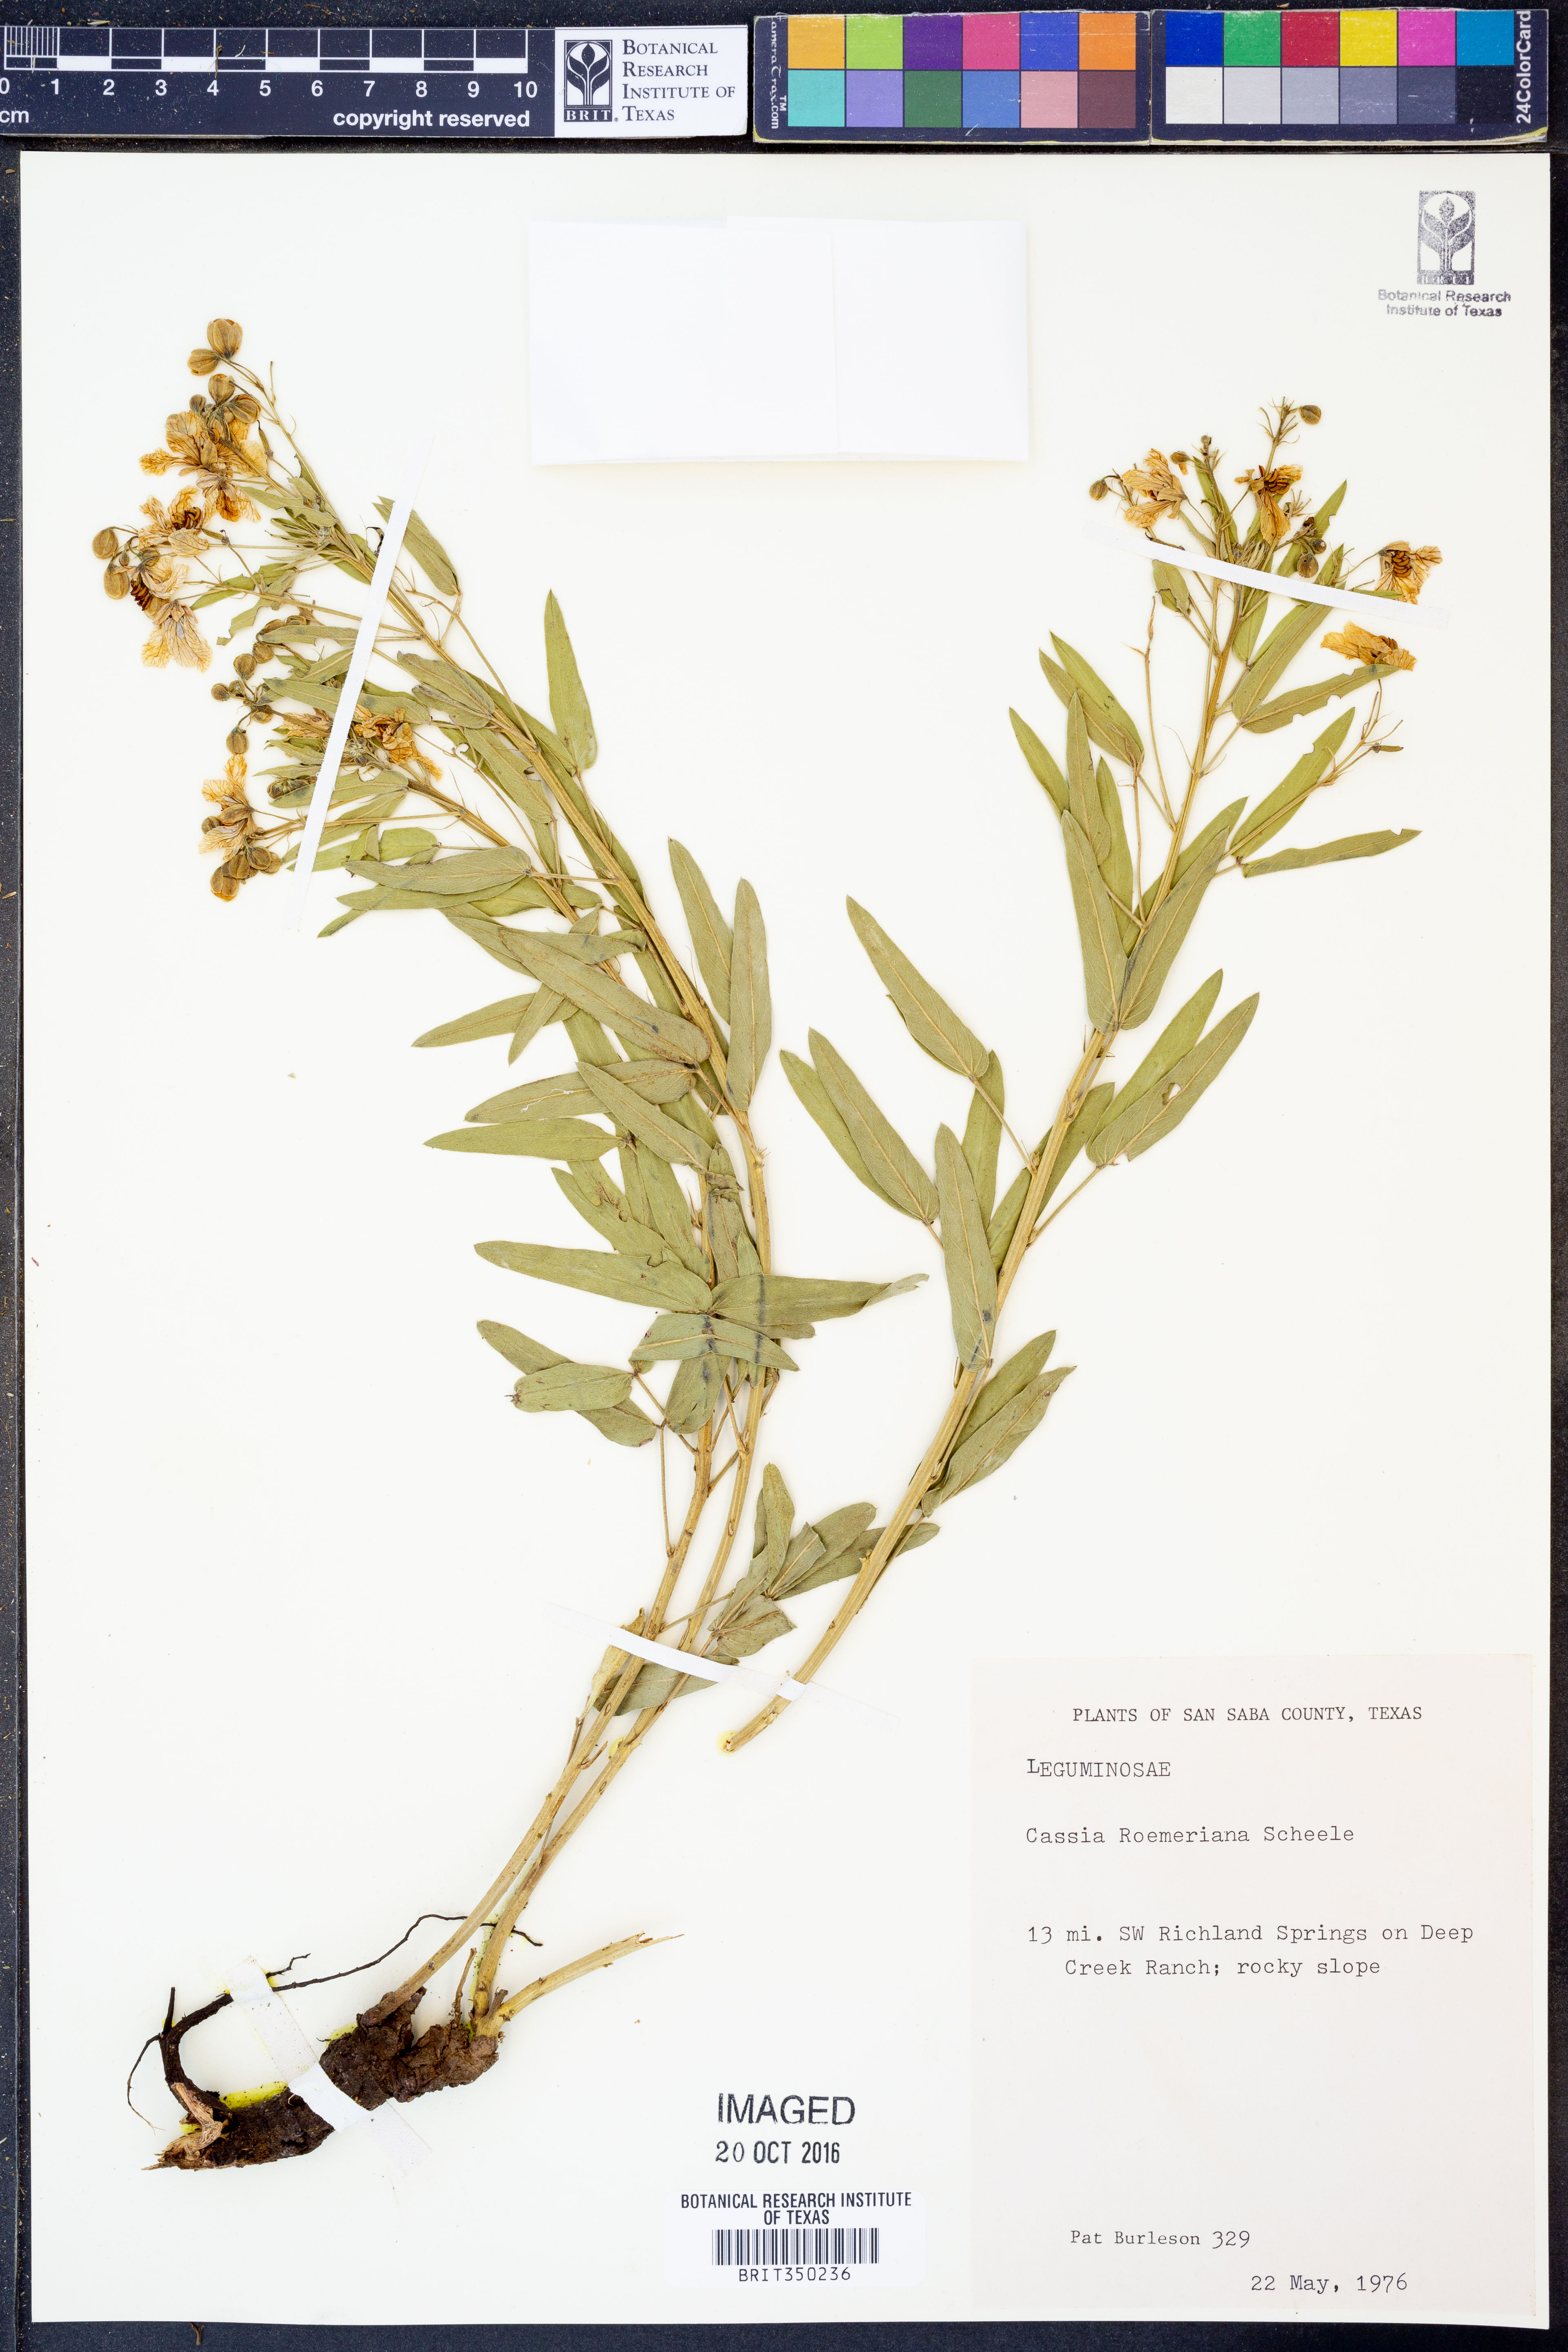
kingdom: Plantae
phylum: Tracheophyta
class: Magnoliopsida
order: Fabales
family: Fabaceae
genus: Senna
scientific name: Senna roemeriana
